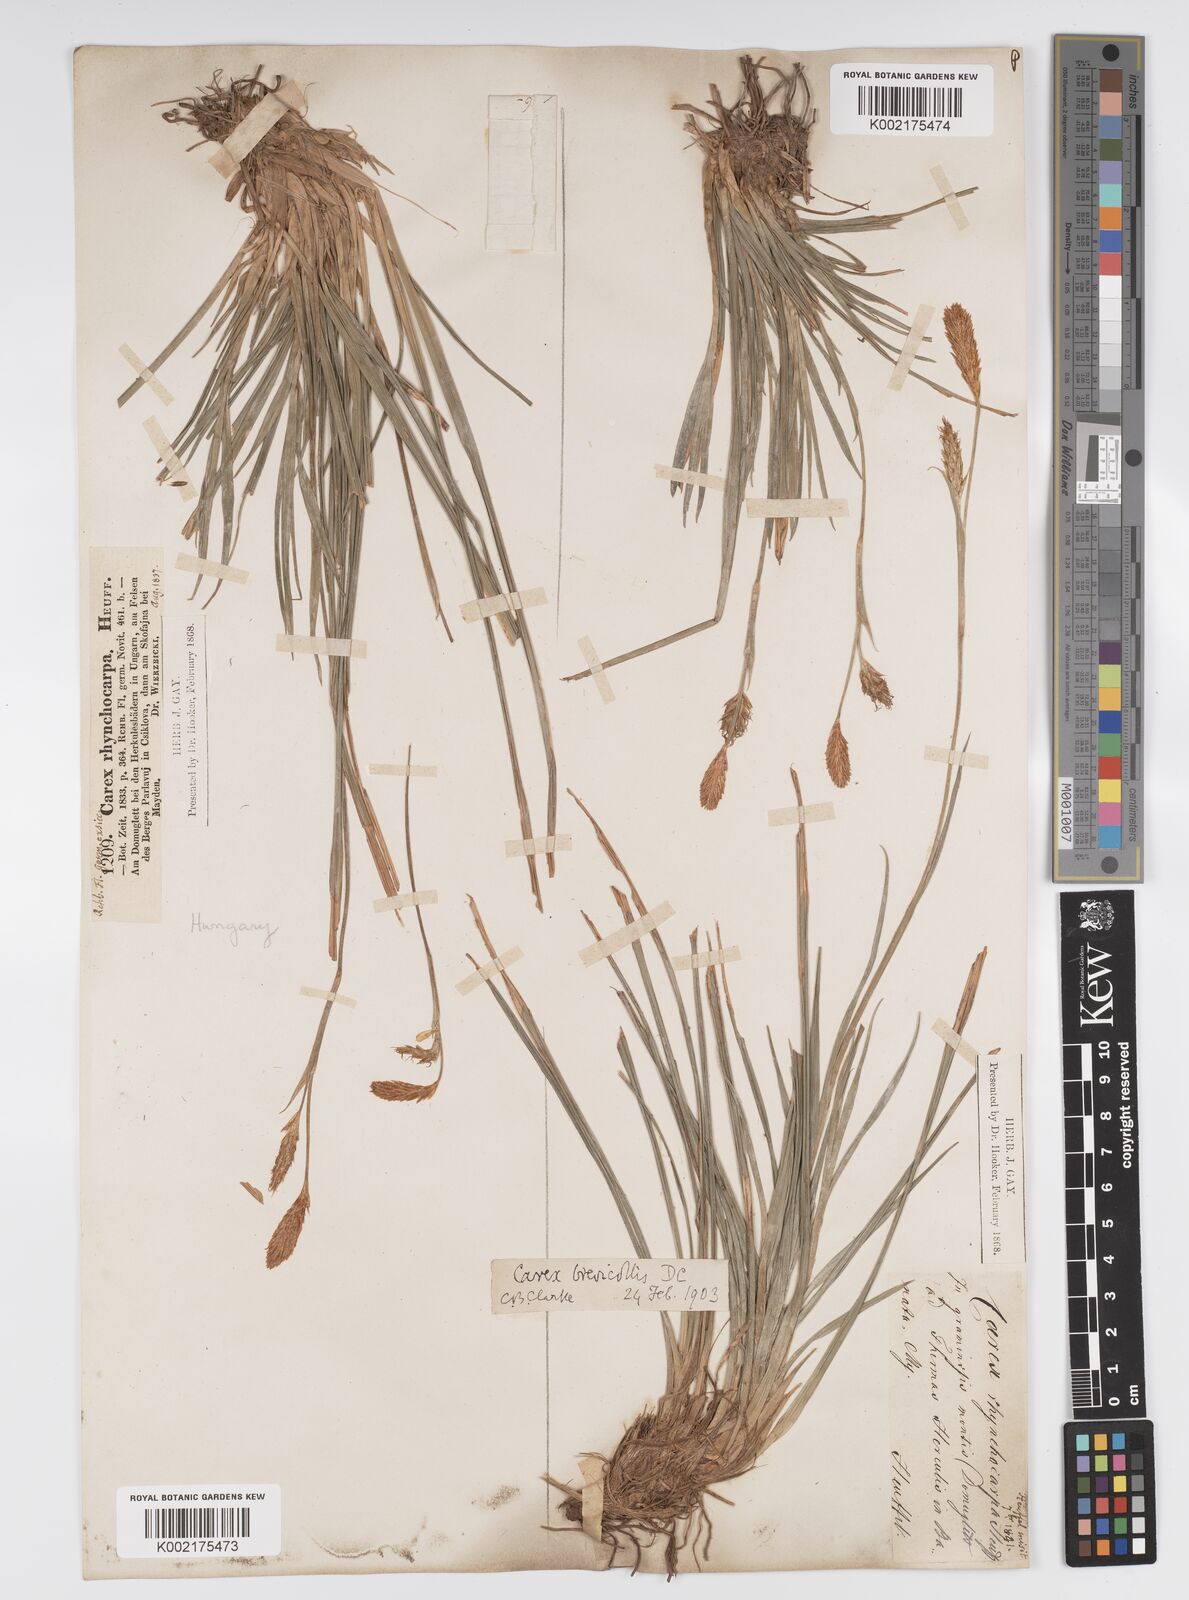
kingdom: Plantae
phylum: Tracheophyta
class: Liliopsida
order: Poales
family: Cyperaceae
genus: Carex
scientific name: Carex brevicollis
